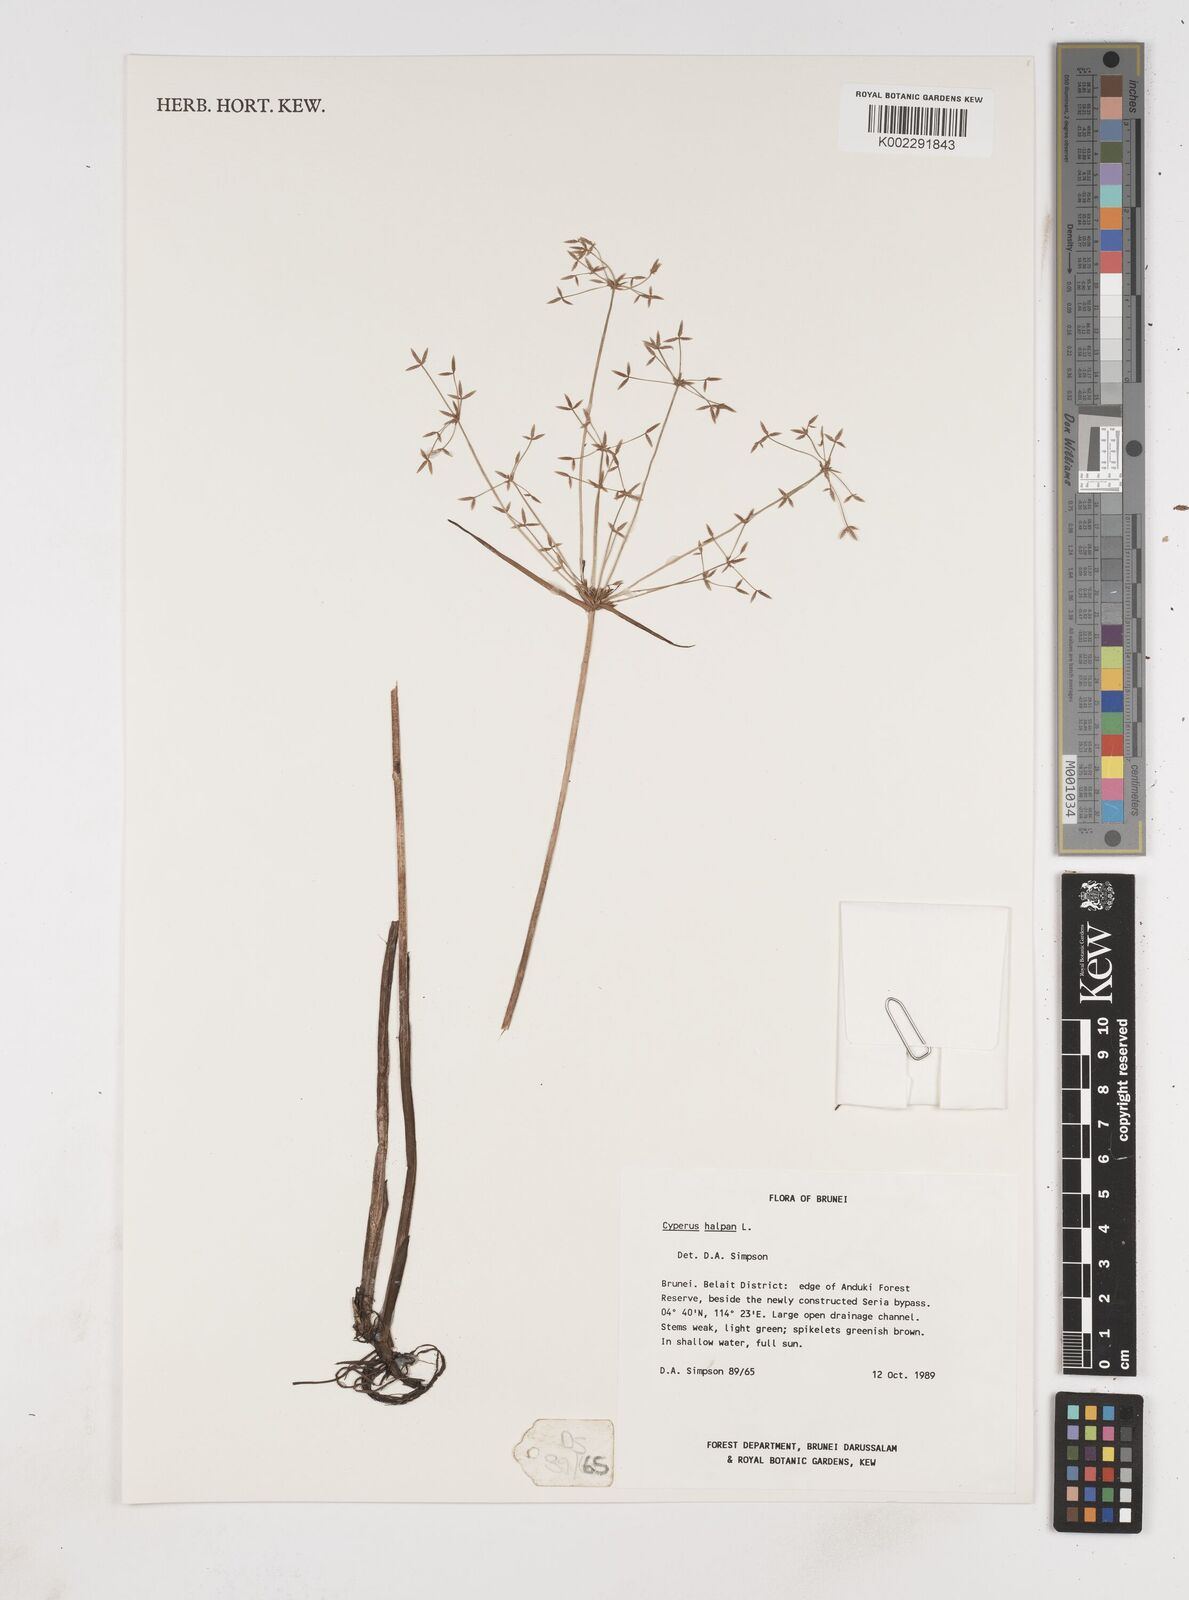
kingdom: Plantae
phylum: Tracheophyta
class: Liliopsida
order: Poales
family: Cyperaceae
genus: Cyperus
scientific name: Cyperus haspan
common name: Haspan flatsedge
